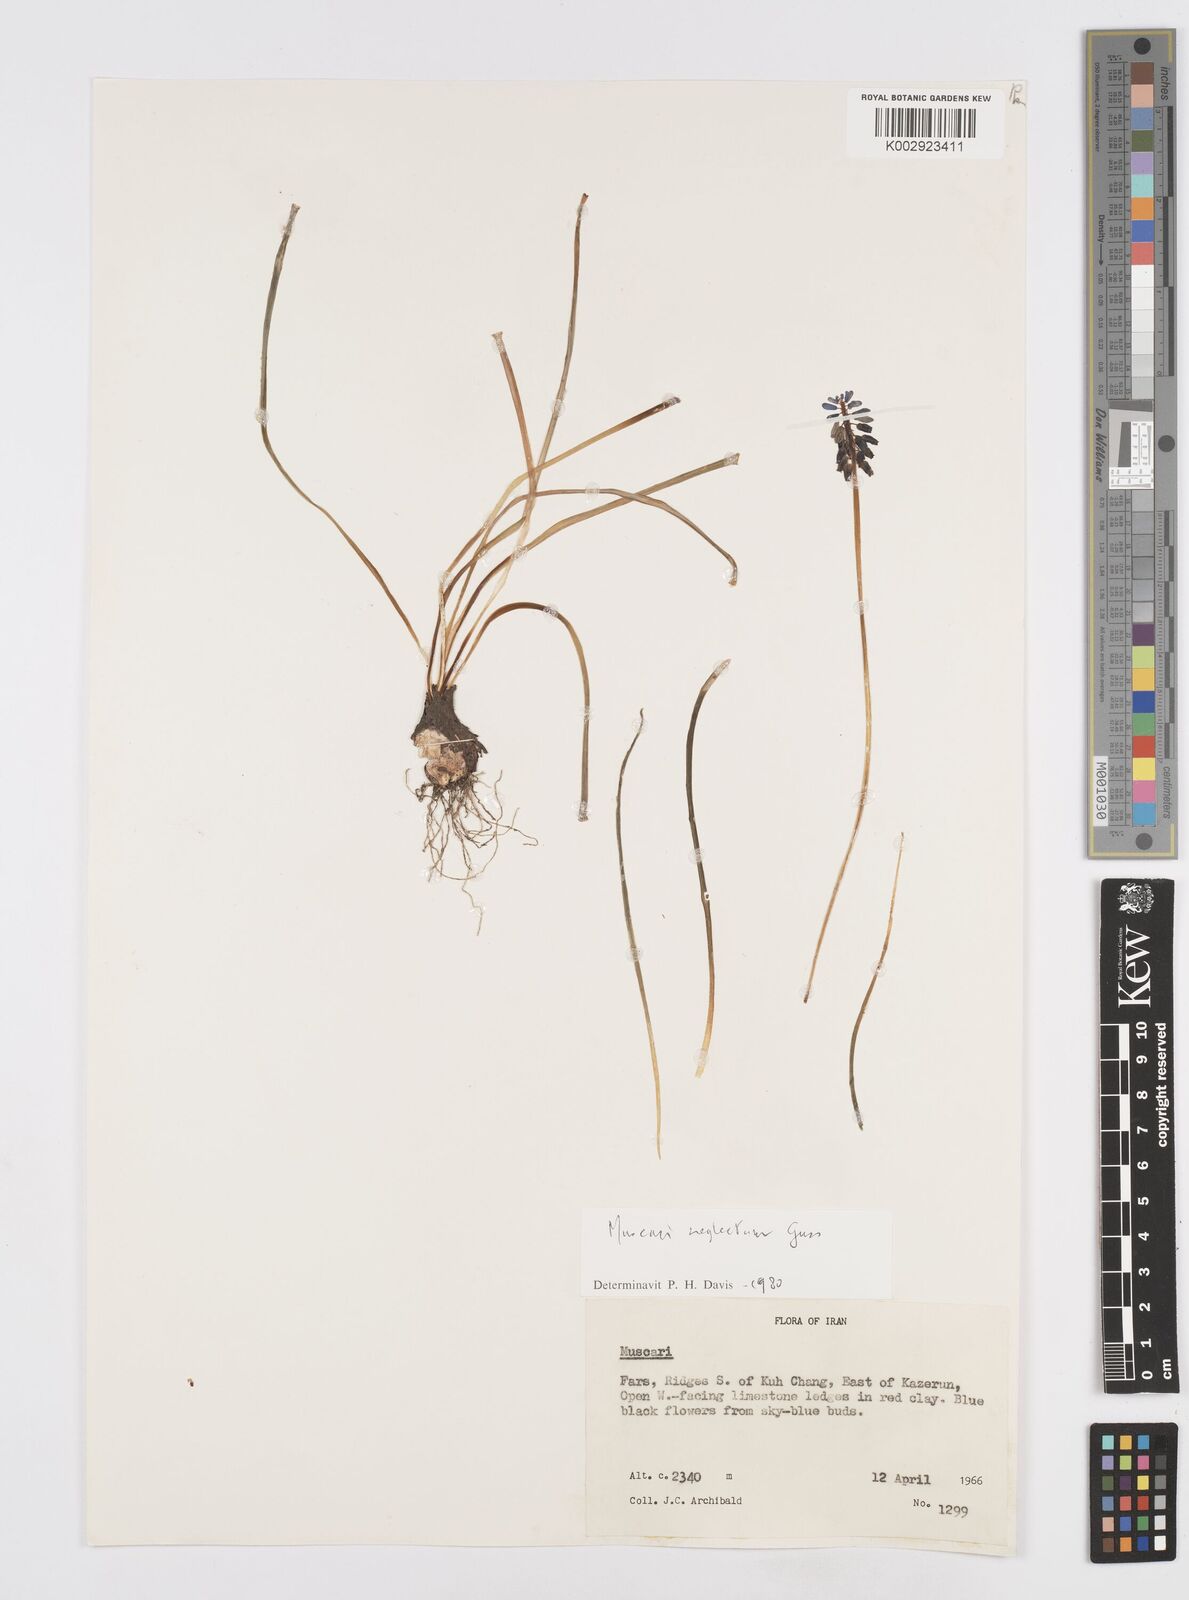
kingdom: Plantae
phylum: Tracheophyta
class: Liliopsida
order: Asparagales
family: Asparagaceae
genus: Muscari
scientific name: Muscari neglectum
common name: Grape-hyacinth
